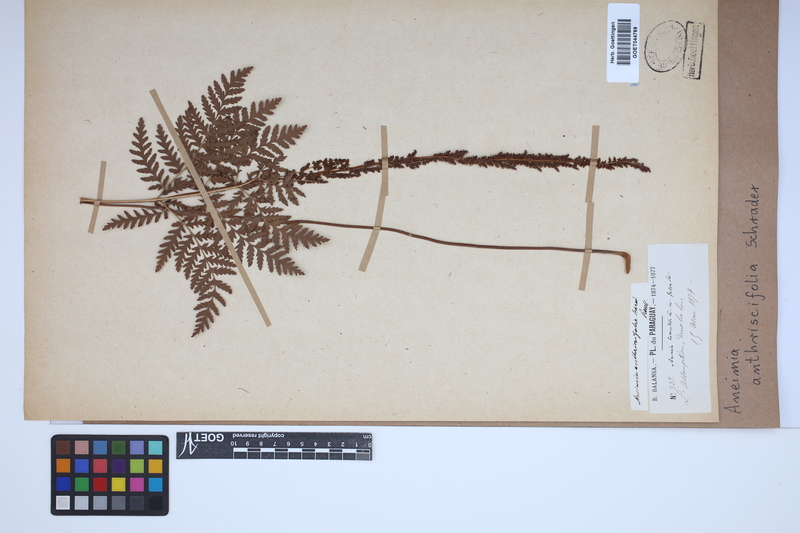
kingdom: Plantae
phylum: Tracheophyta
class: Polypodiopsida
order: Schizaeales
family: Anemiaceae
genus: Anemia
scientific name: Anemia tomentosa
